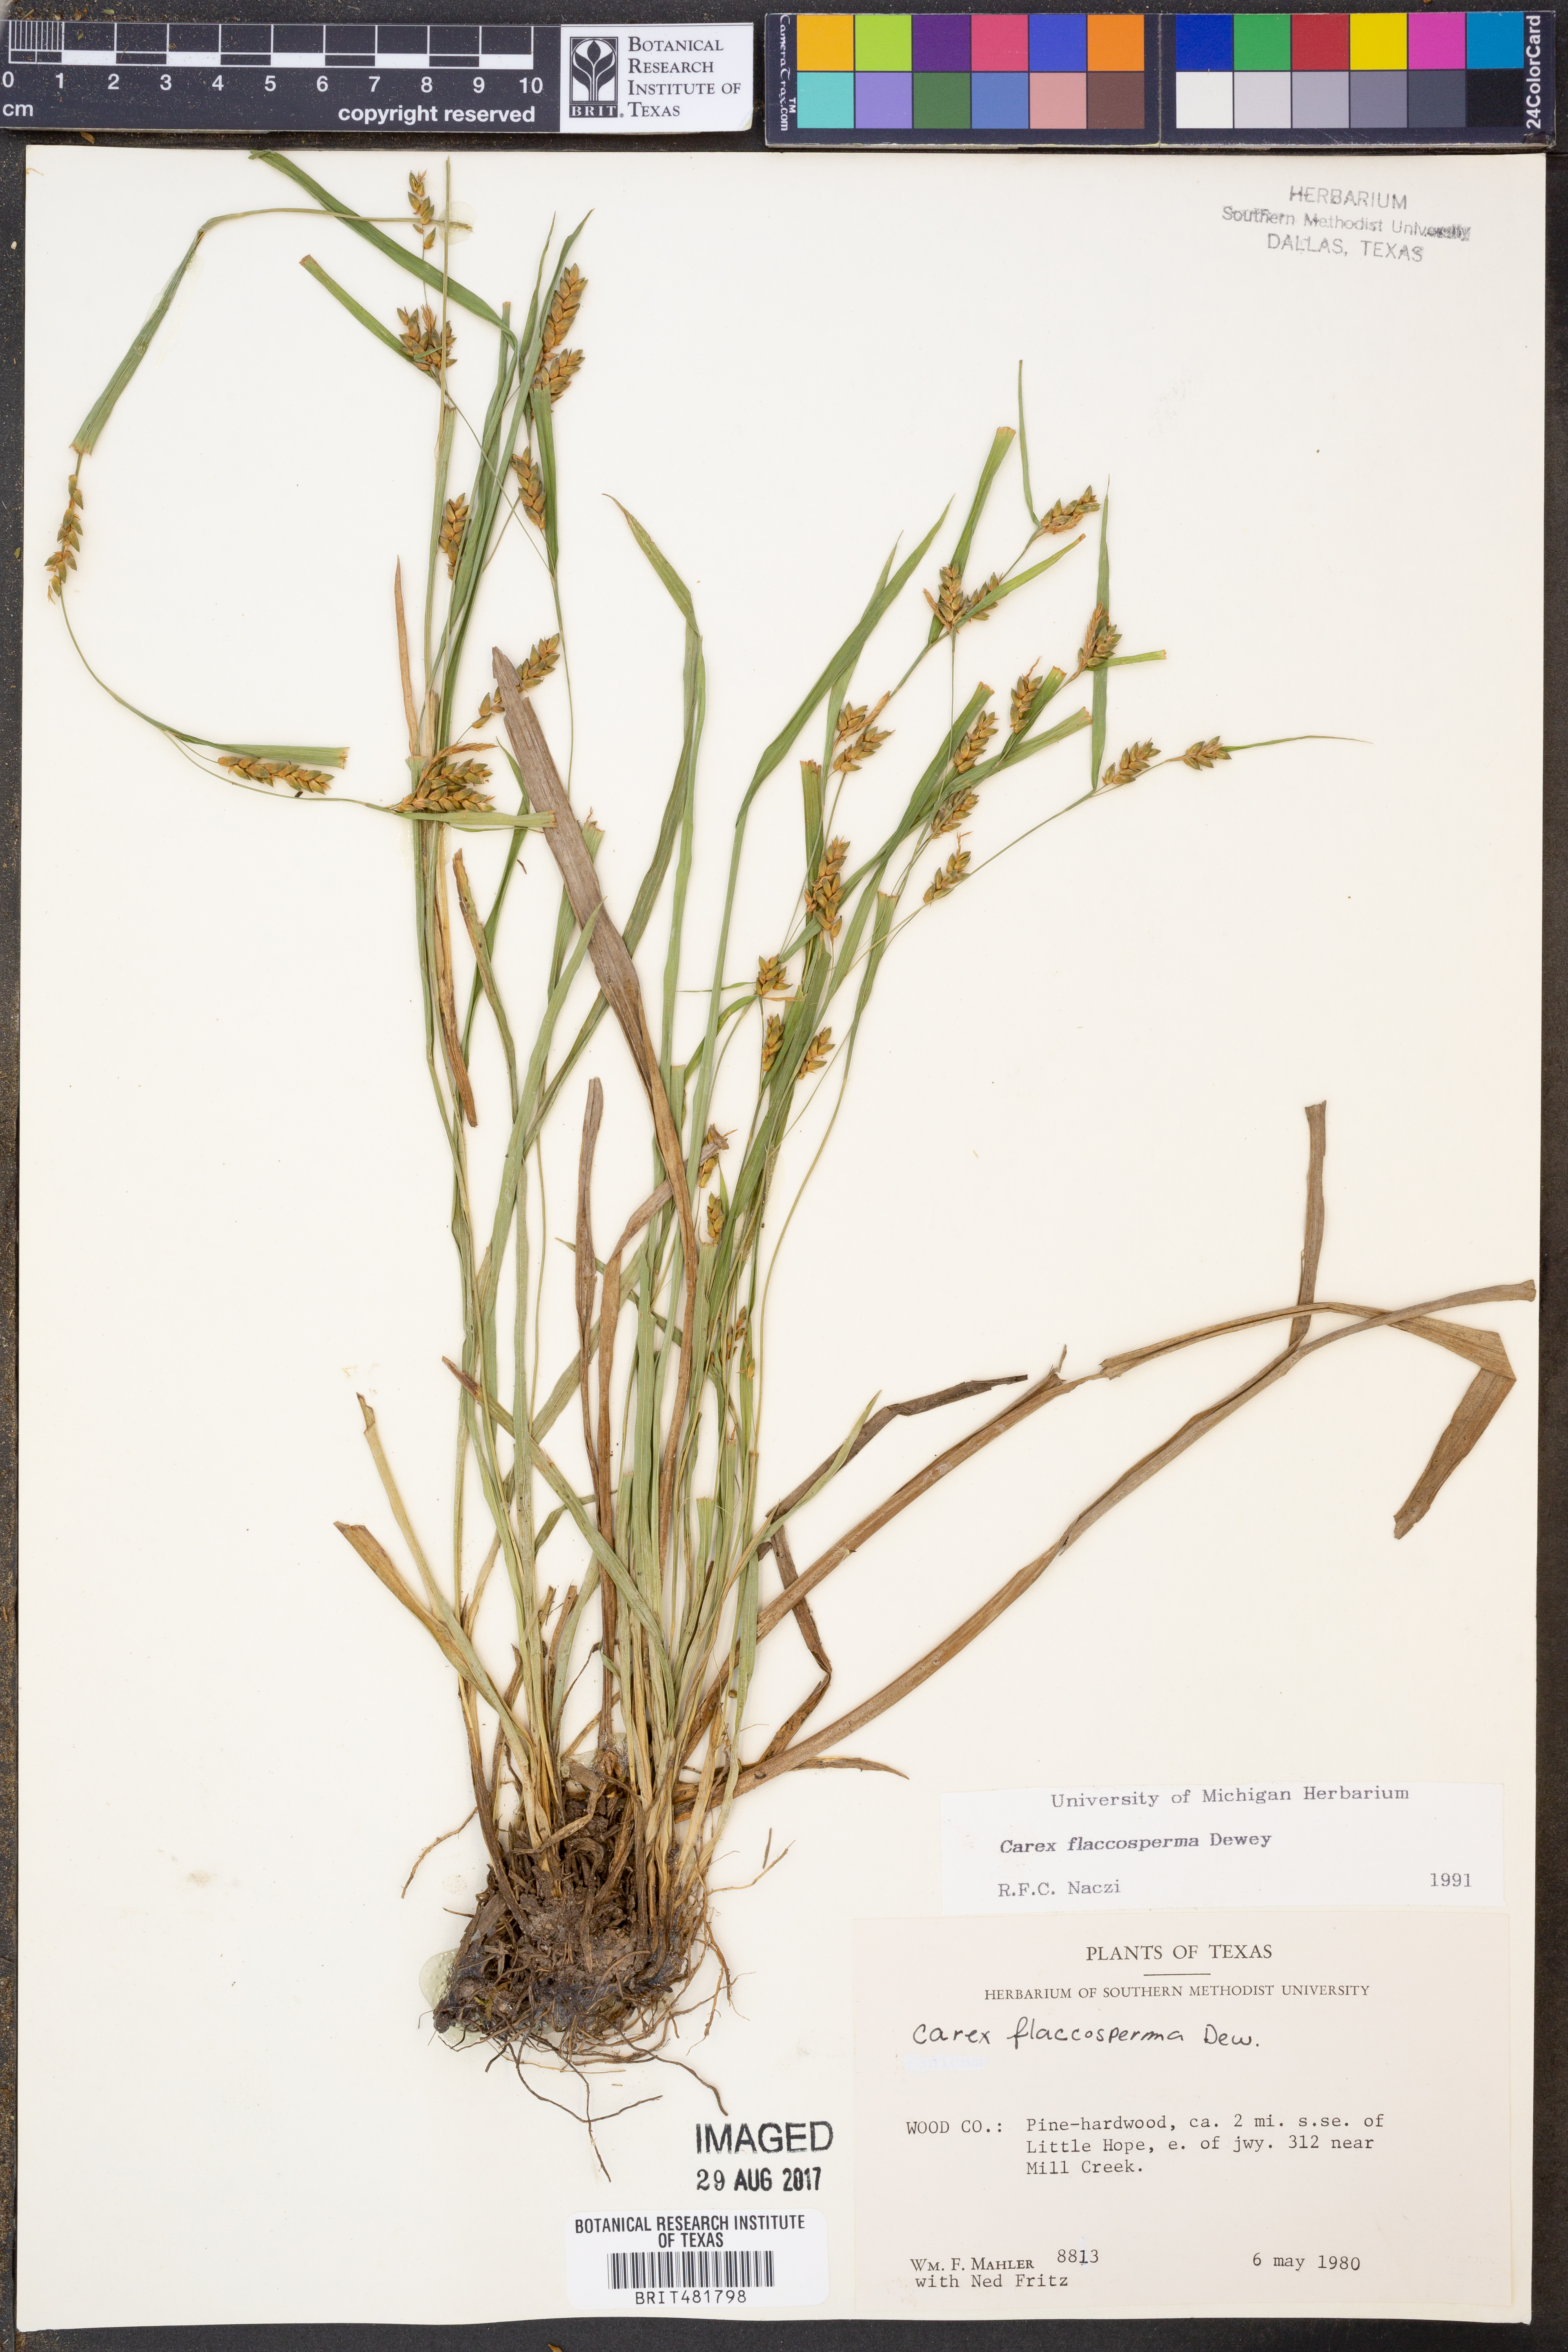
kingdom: Plantae
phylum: Tracheophyta
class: Liliopsida
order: Poales
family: Cyperaceae
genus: Carex
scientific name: Carex flaccosperma
